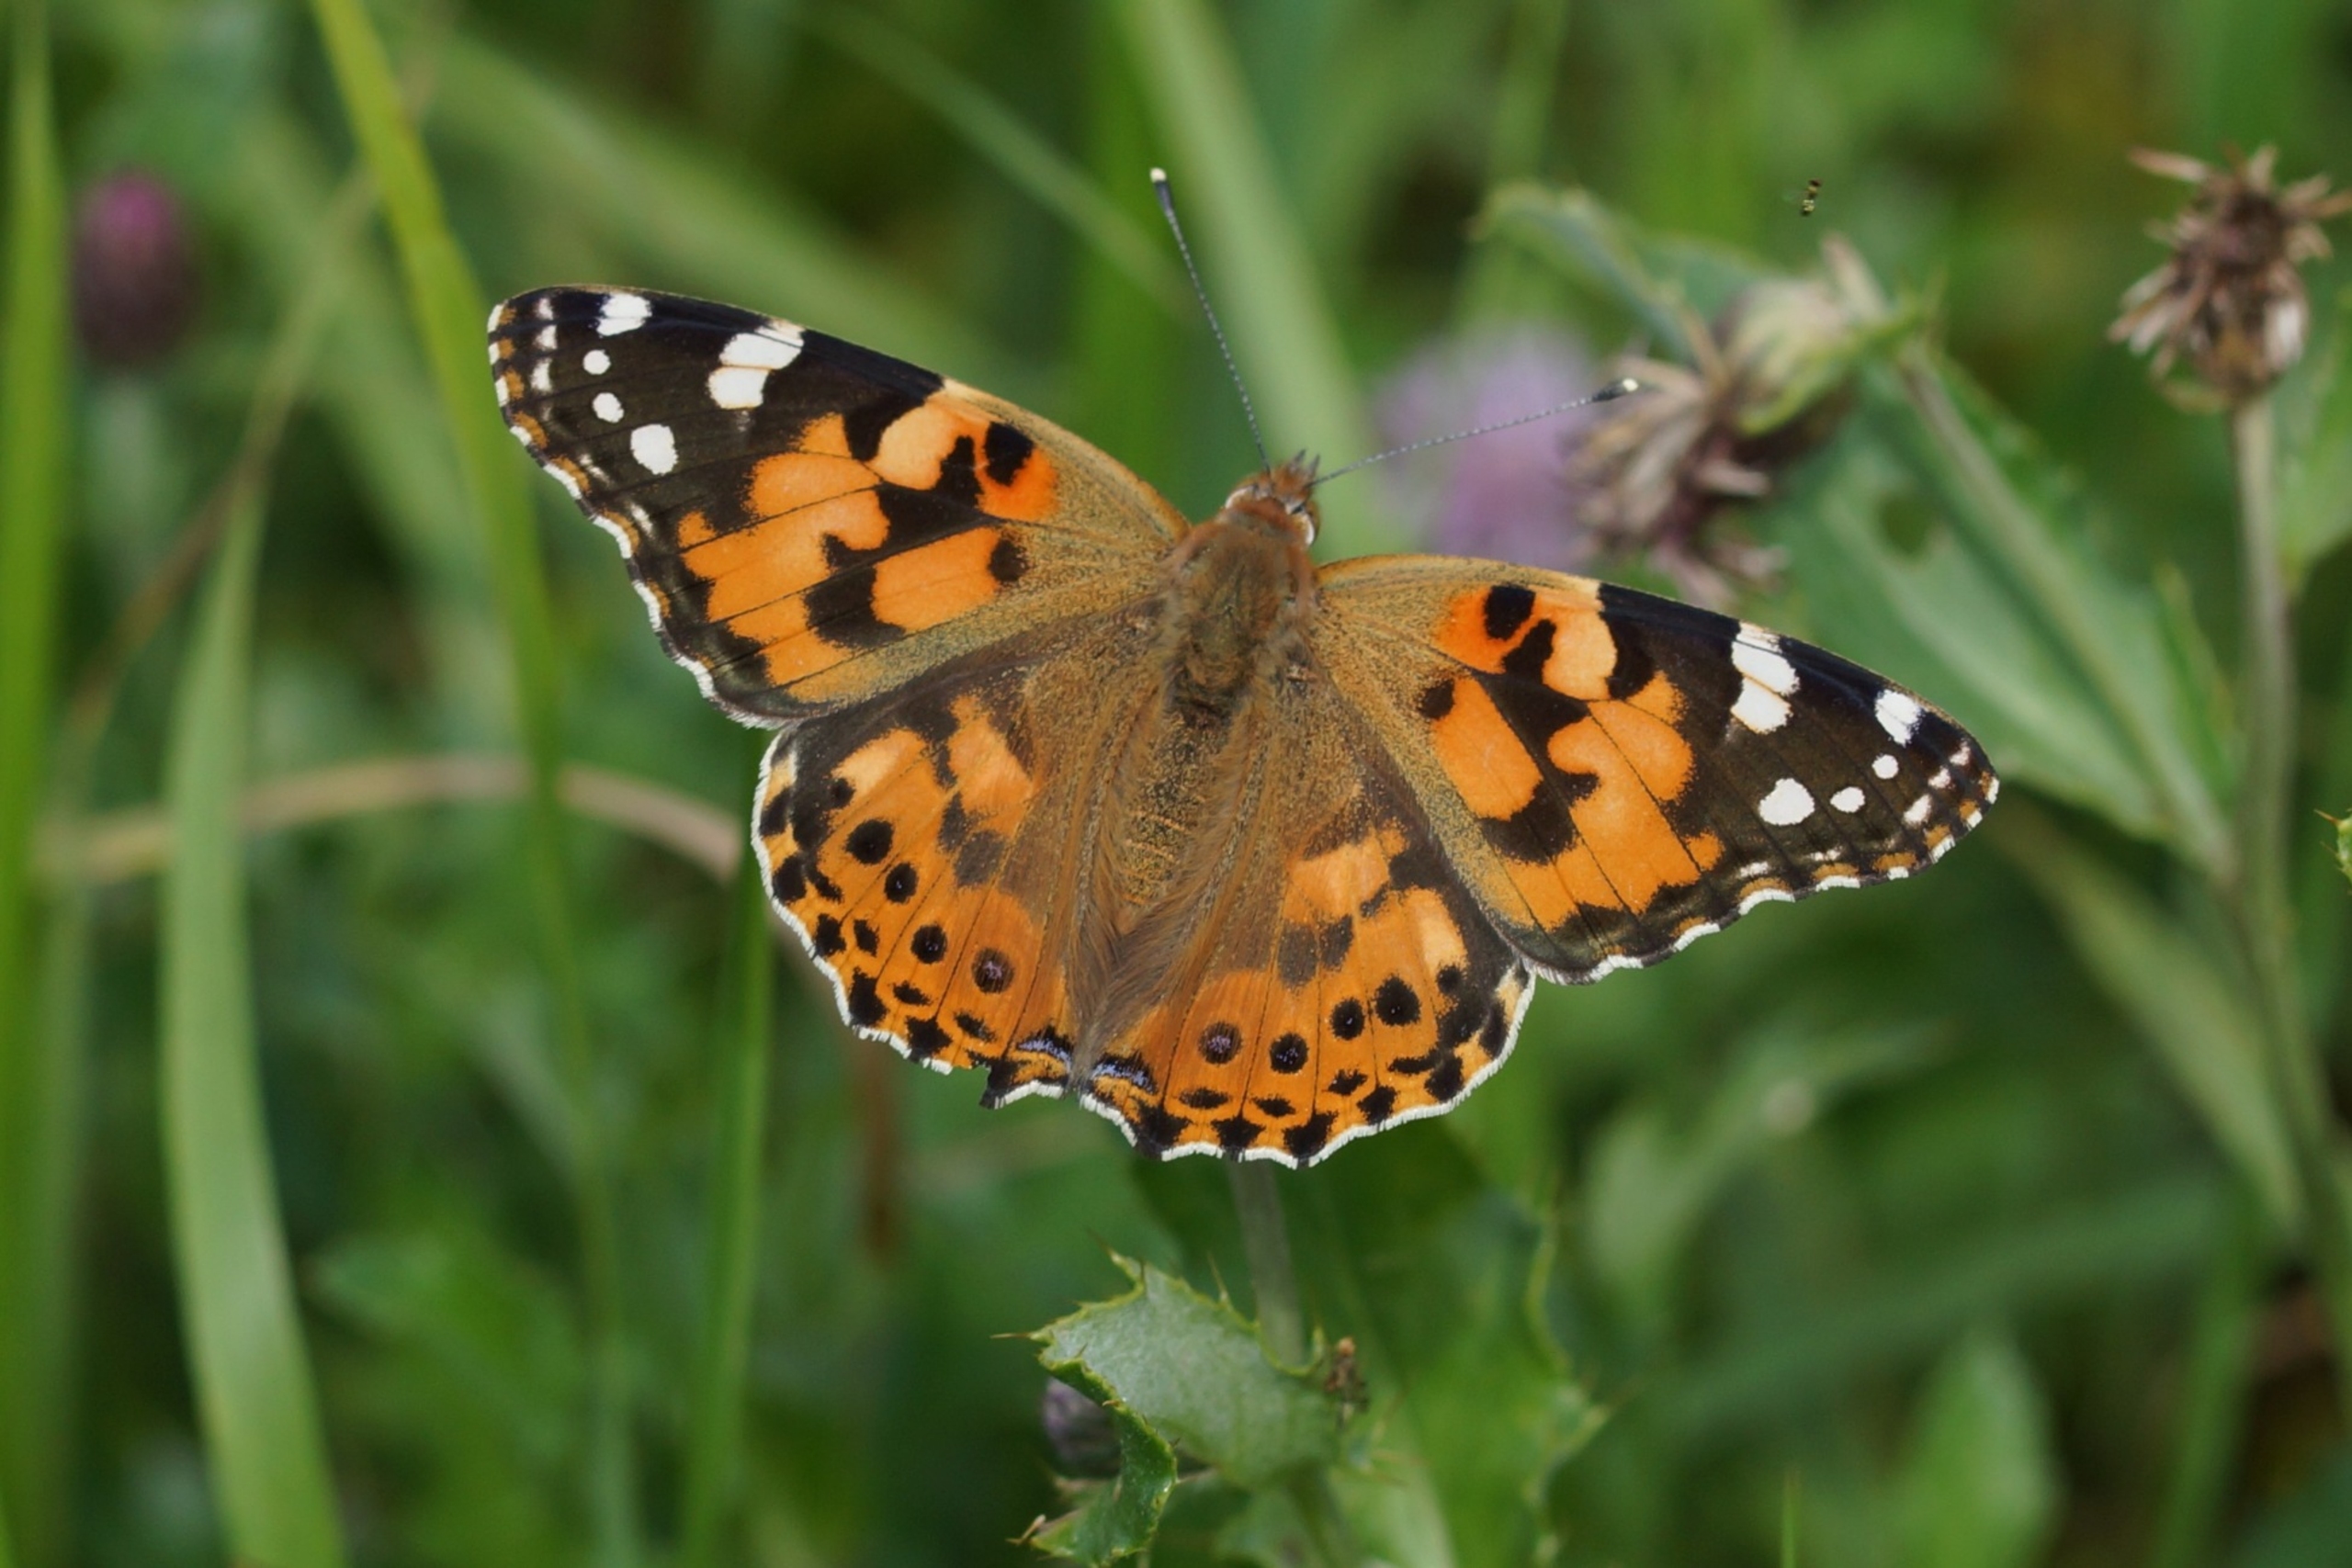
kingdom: Animalia
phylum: Arthropoda
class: Insecta
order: Lepidoptera
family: Nymphalidae
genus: Vanessa
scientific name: Vanessa cardui
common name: Tidselsommerfugl
